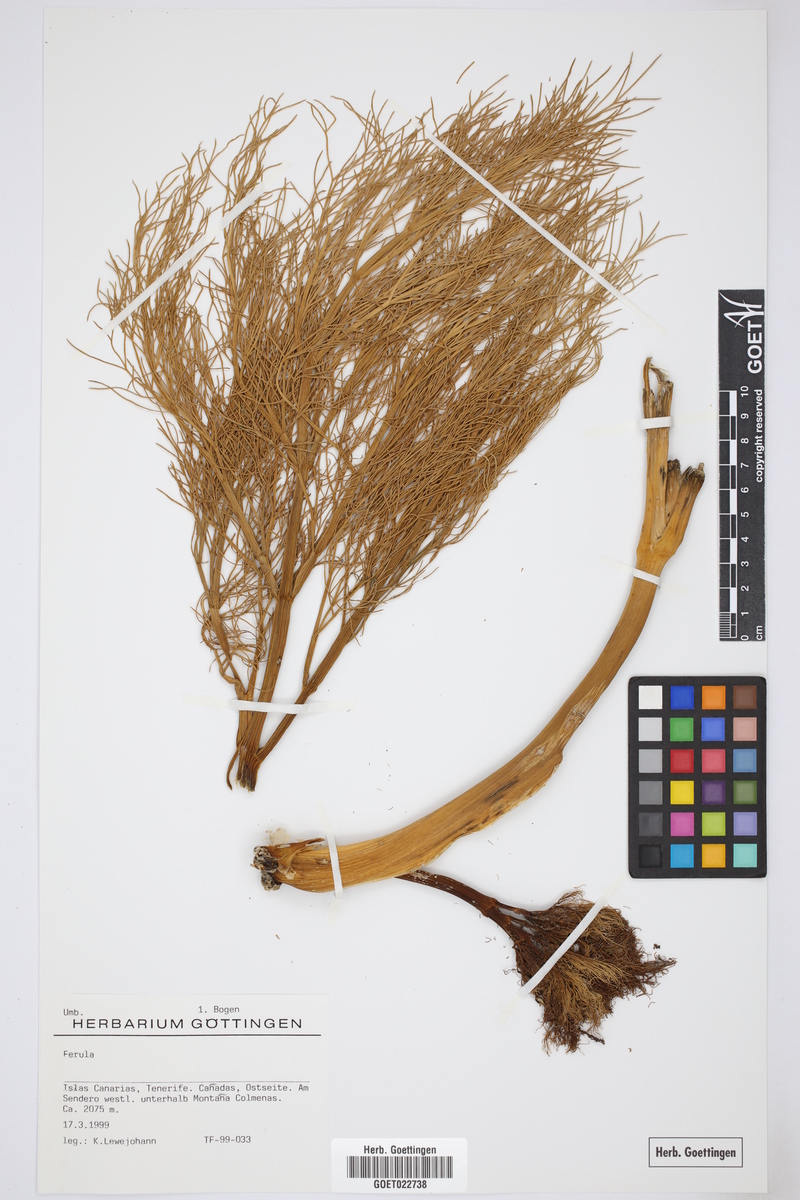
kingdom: Plantae
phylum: Tracheophyta
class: Magnoliopsida
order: Apiales
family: Apiaceae
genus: Ferula
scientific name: Ferula
